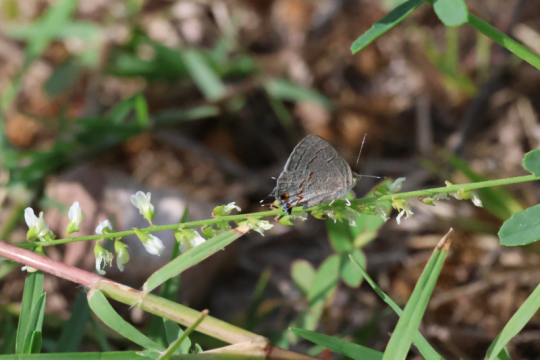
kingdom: Animalia
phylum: Arthropoda
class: Insecta
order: Lepidoptera
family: Lycaenidae
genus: Ministrymon
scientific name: Ministrymon leda
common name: Leda Ministreak
